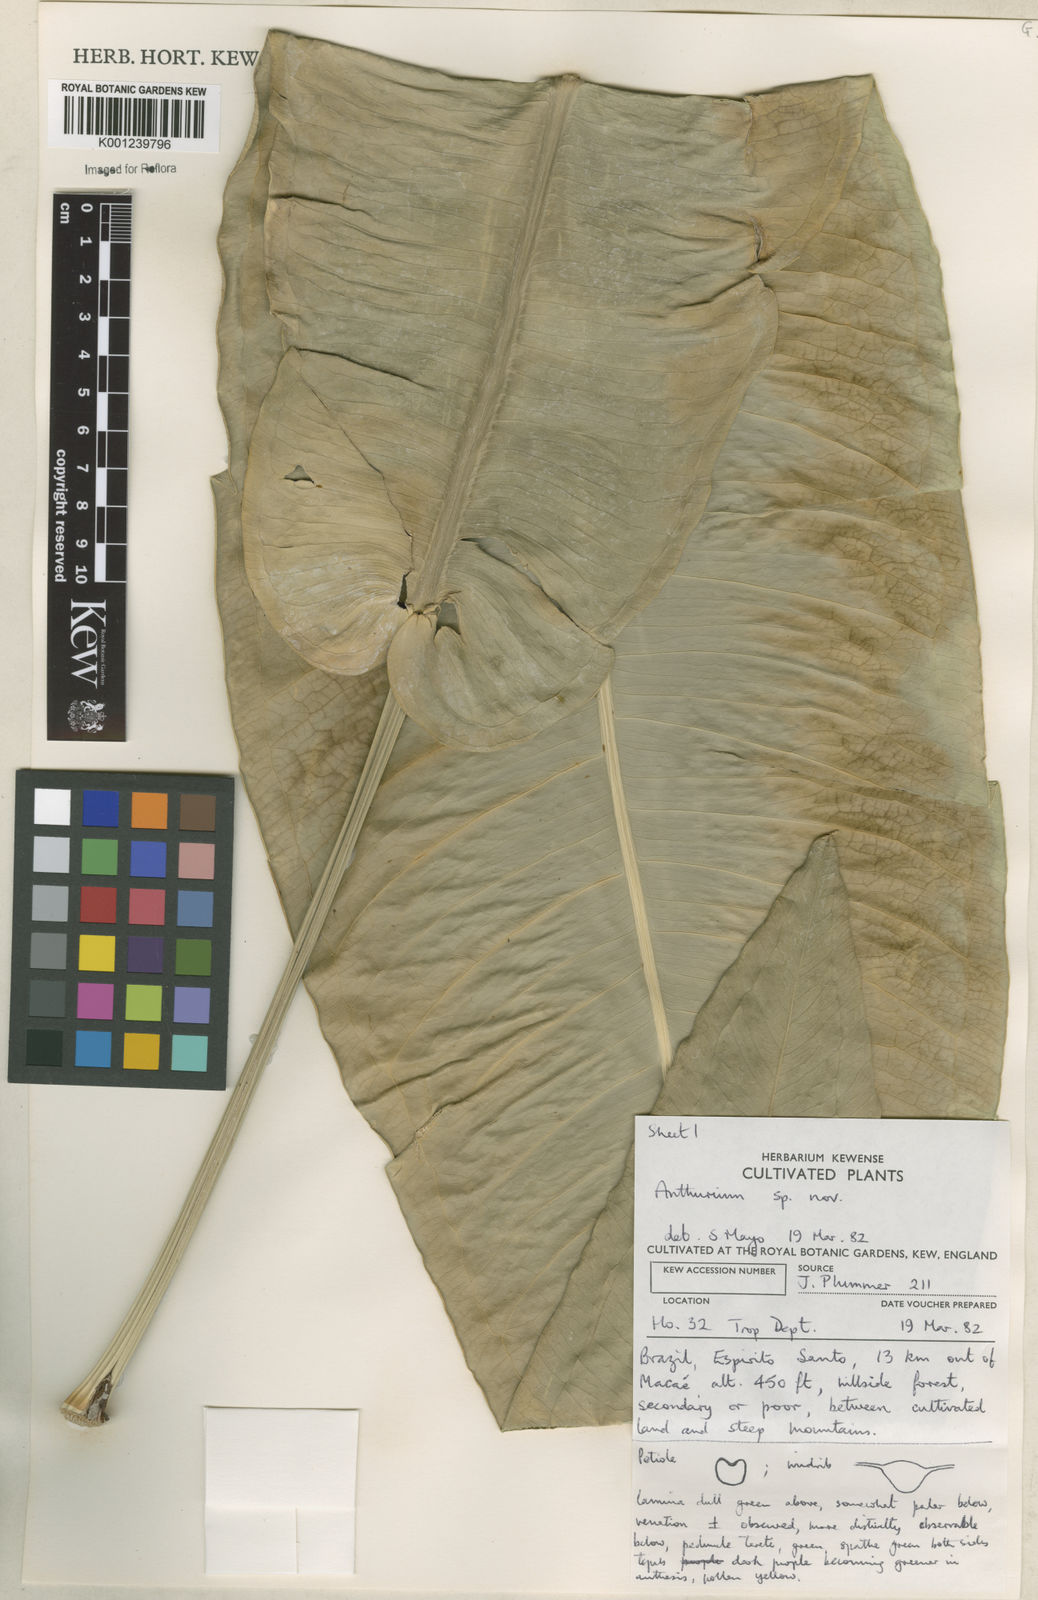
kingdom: Plantae
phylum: Tracheophyta
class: Liliopsida
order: Alismatales
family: Araceae
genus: Anthurium
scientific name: Anthurium
